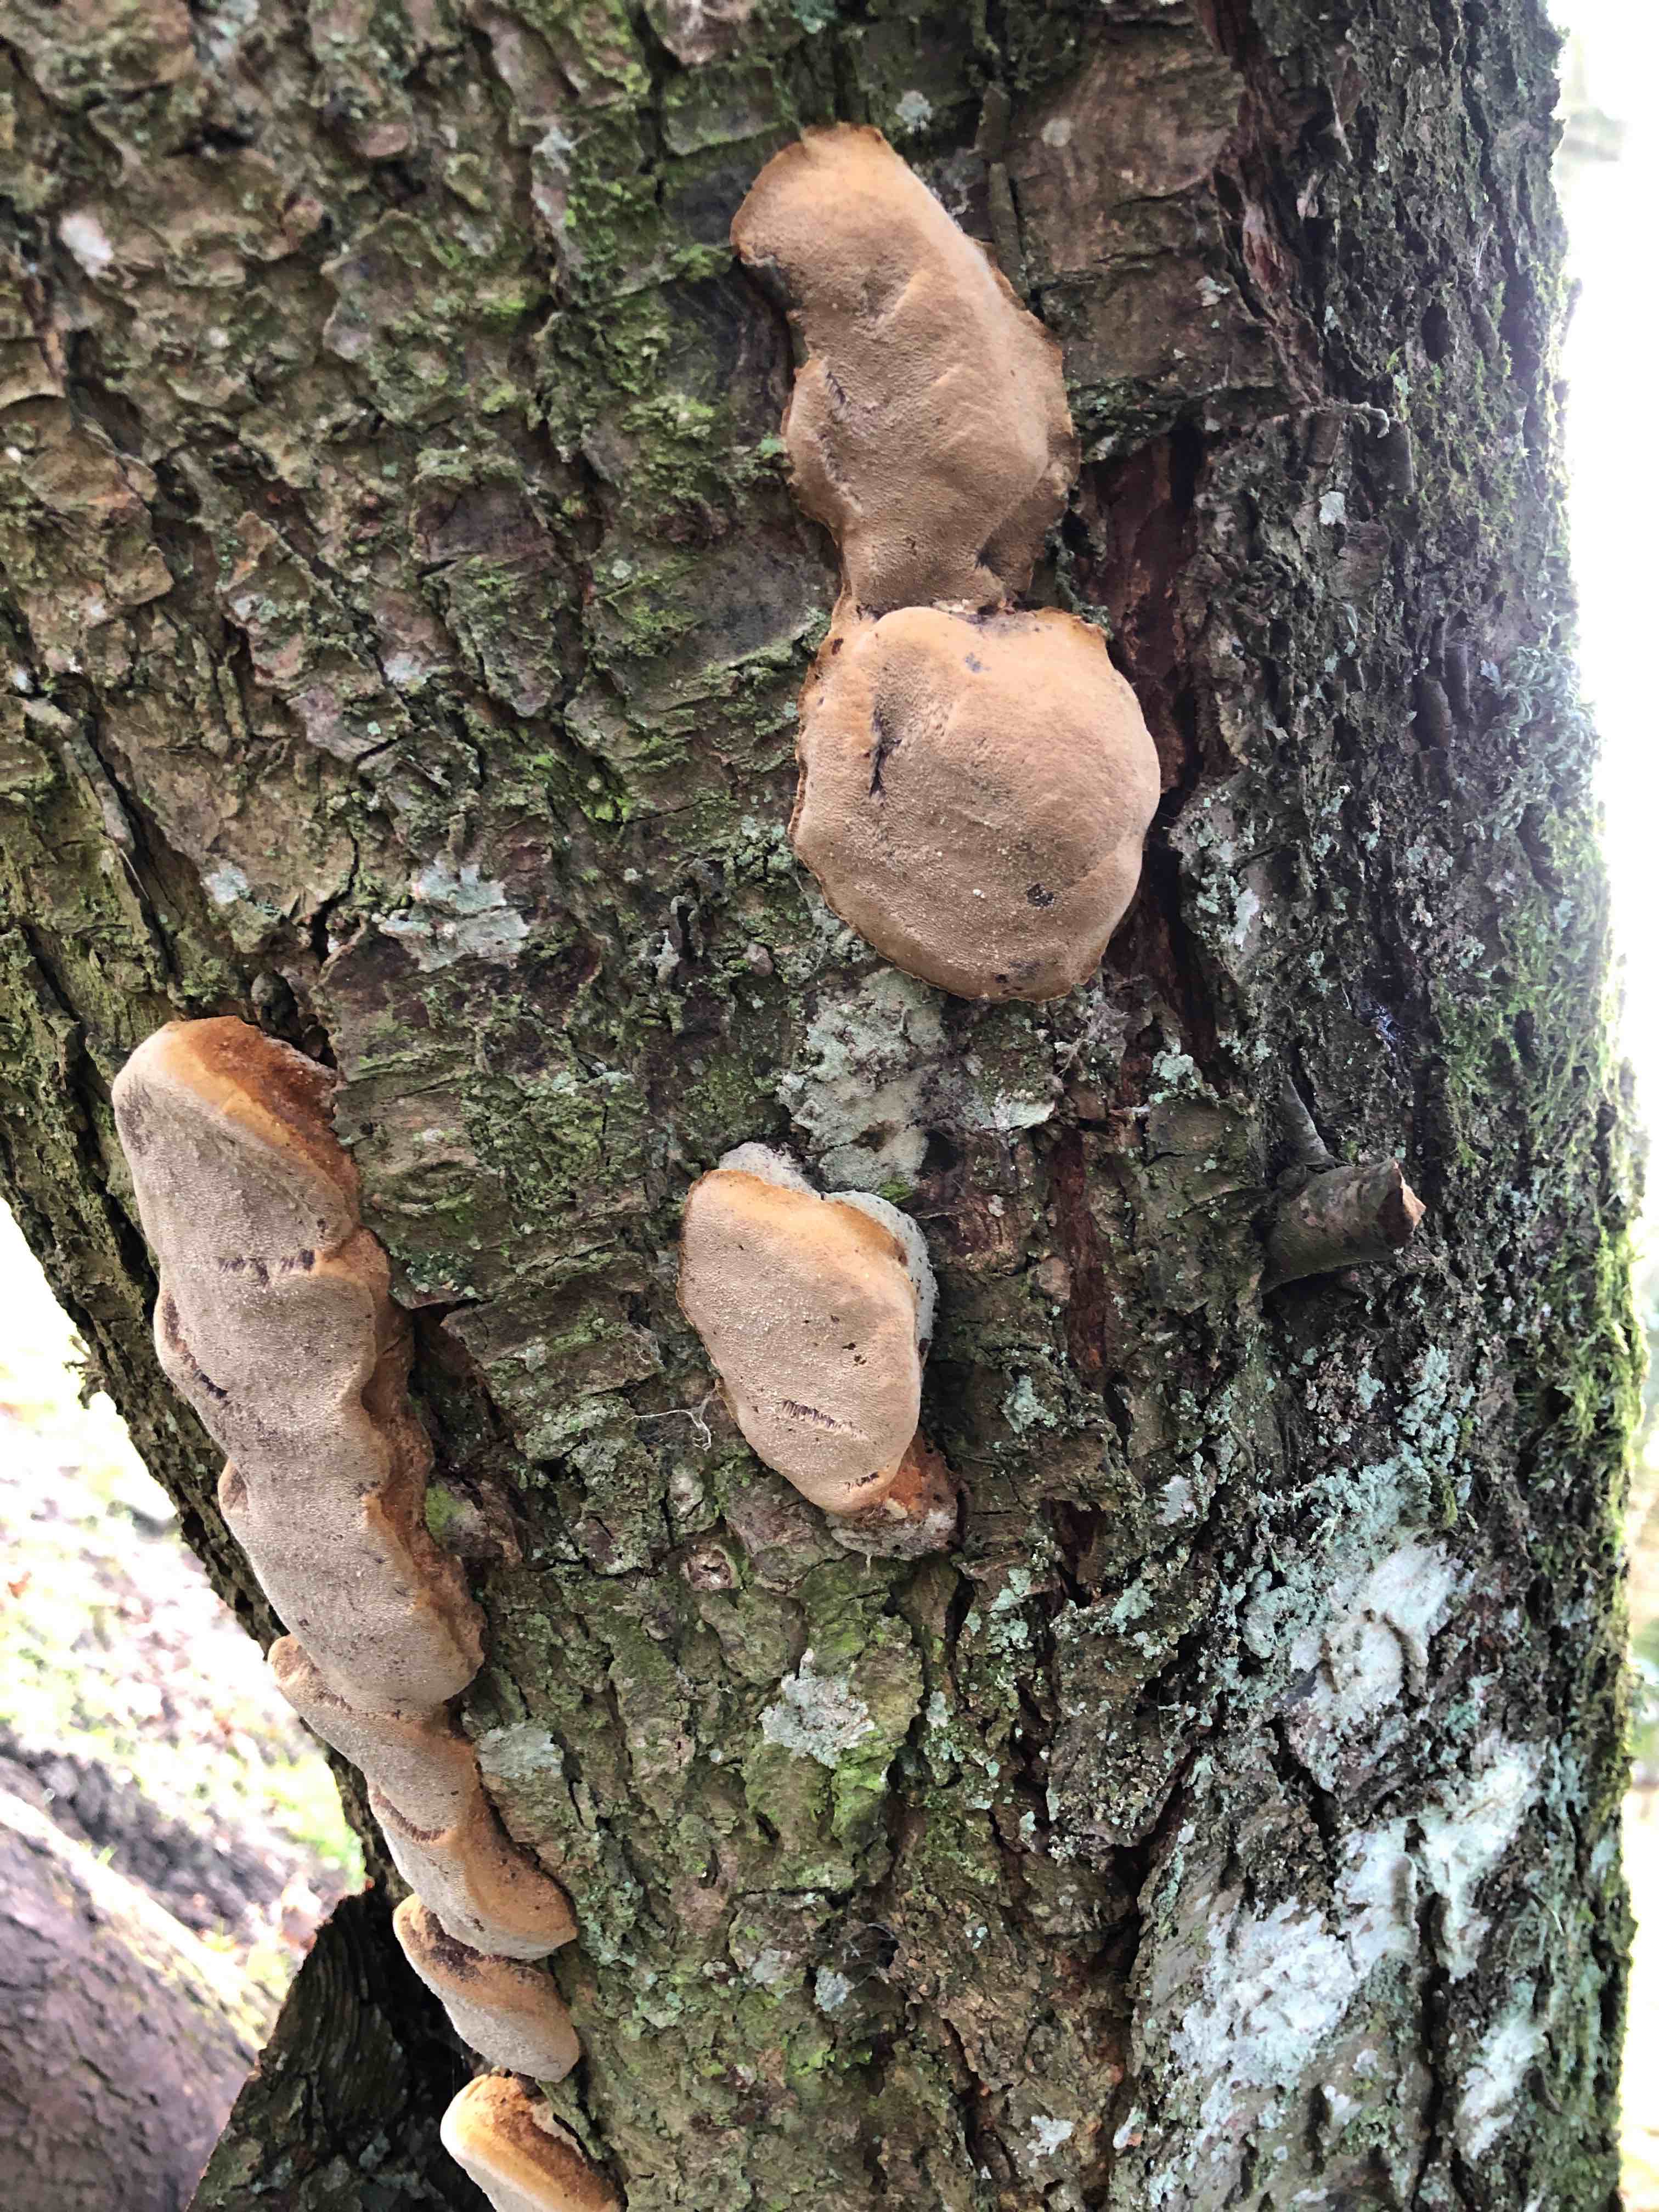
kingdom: Fungi
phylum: Basidiomycota
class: Agaricomycetes
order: Hymenochaetales
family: Hymenochaetaceae
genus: Phellinus
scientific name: Phellinus pomaceus
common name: blomme-ildporesvamp
